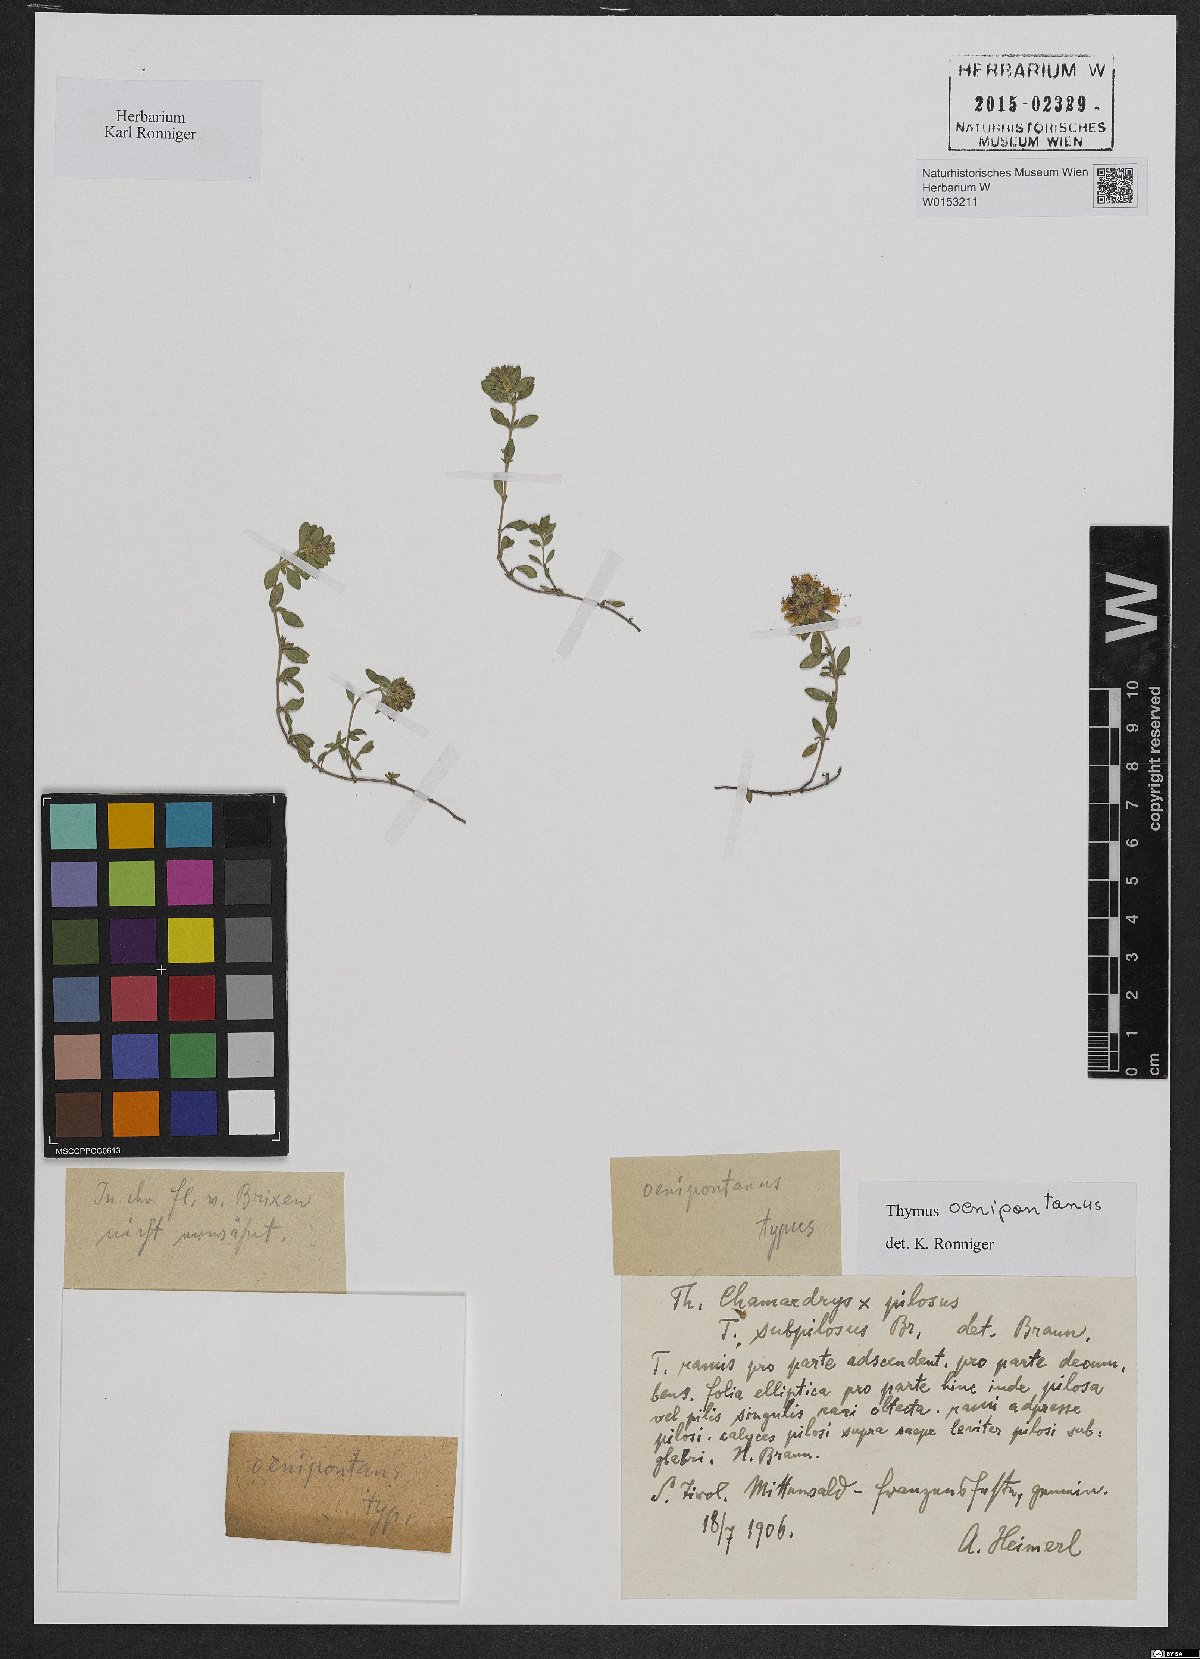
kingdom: Plantae
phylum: Tracheophyta
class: Magnoliopsida
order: Lamiales
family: Lamiaceae
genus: Thymus
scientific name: Thymus oenipontanus
